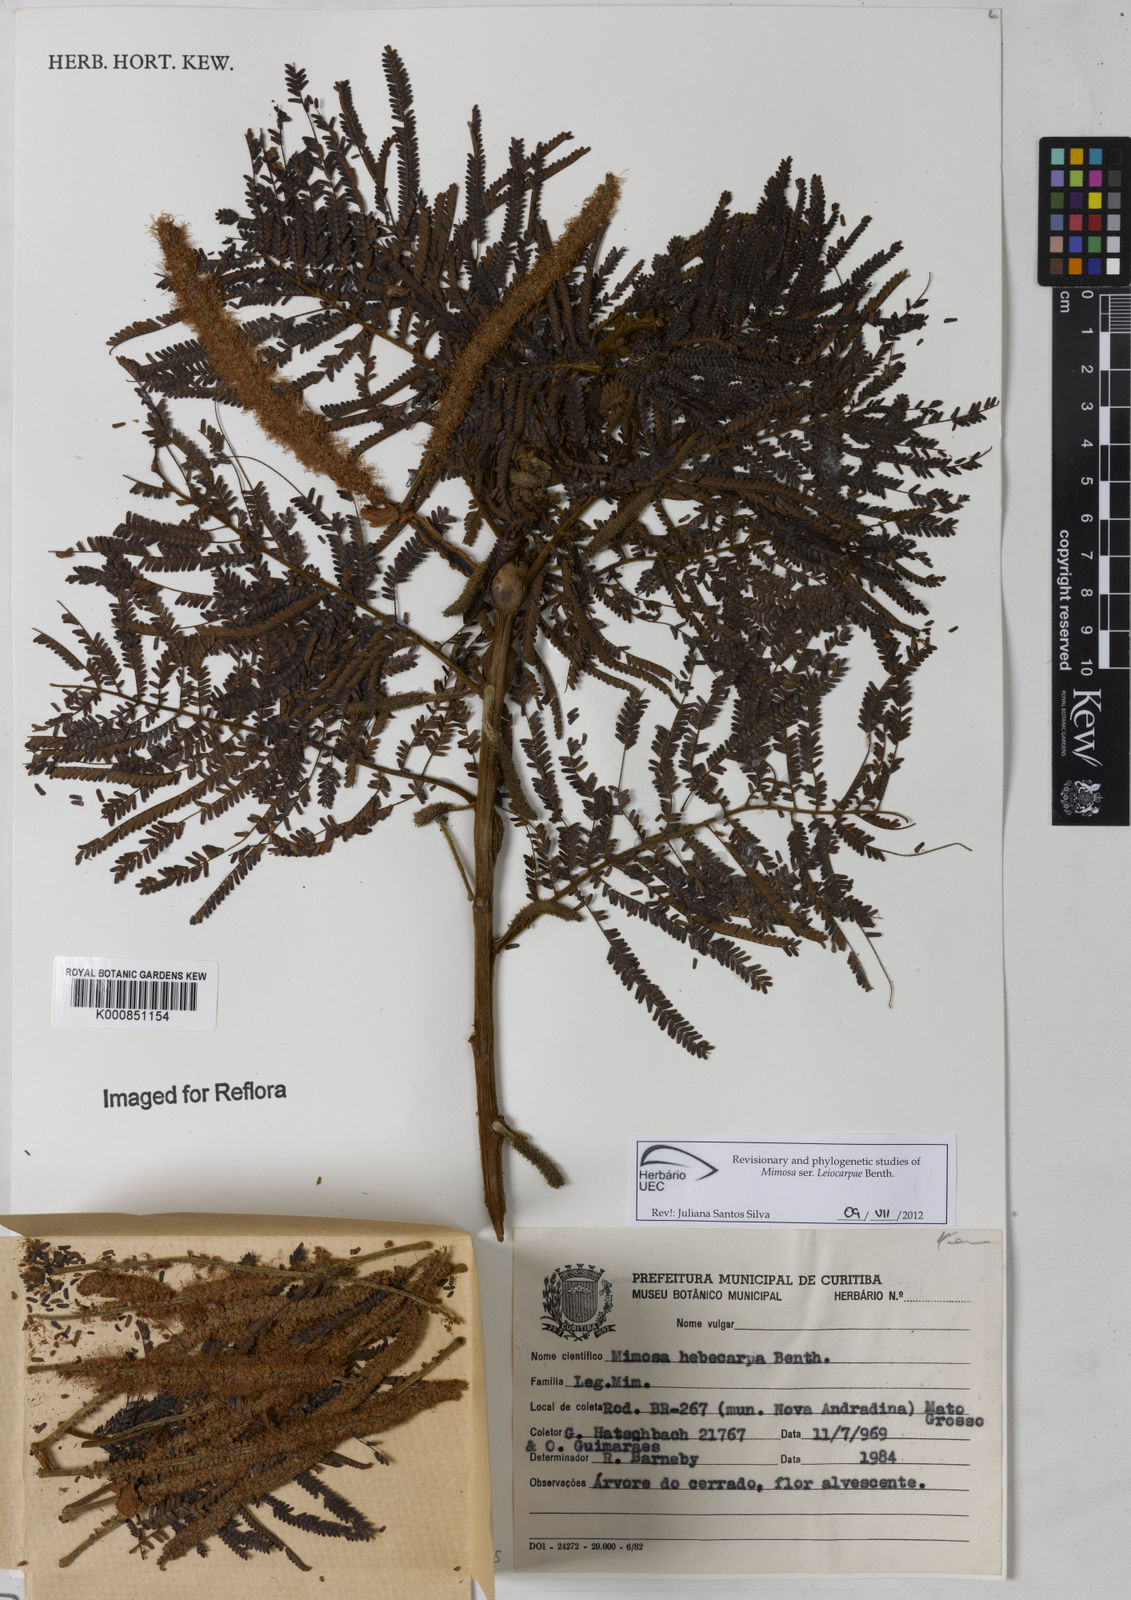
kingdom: Plantae
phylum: Tracheophyta
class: Magnoliopsida
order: Fabales
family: Fabaceae
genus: Mimosa
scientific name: Mimosa hebecarpa
